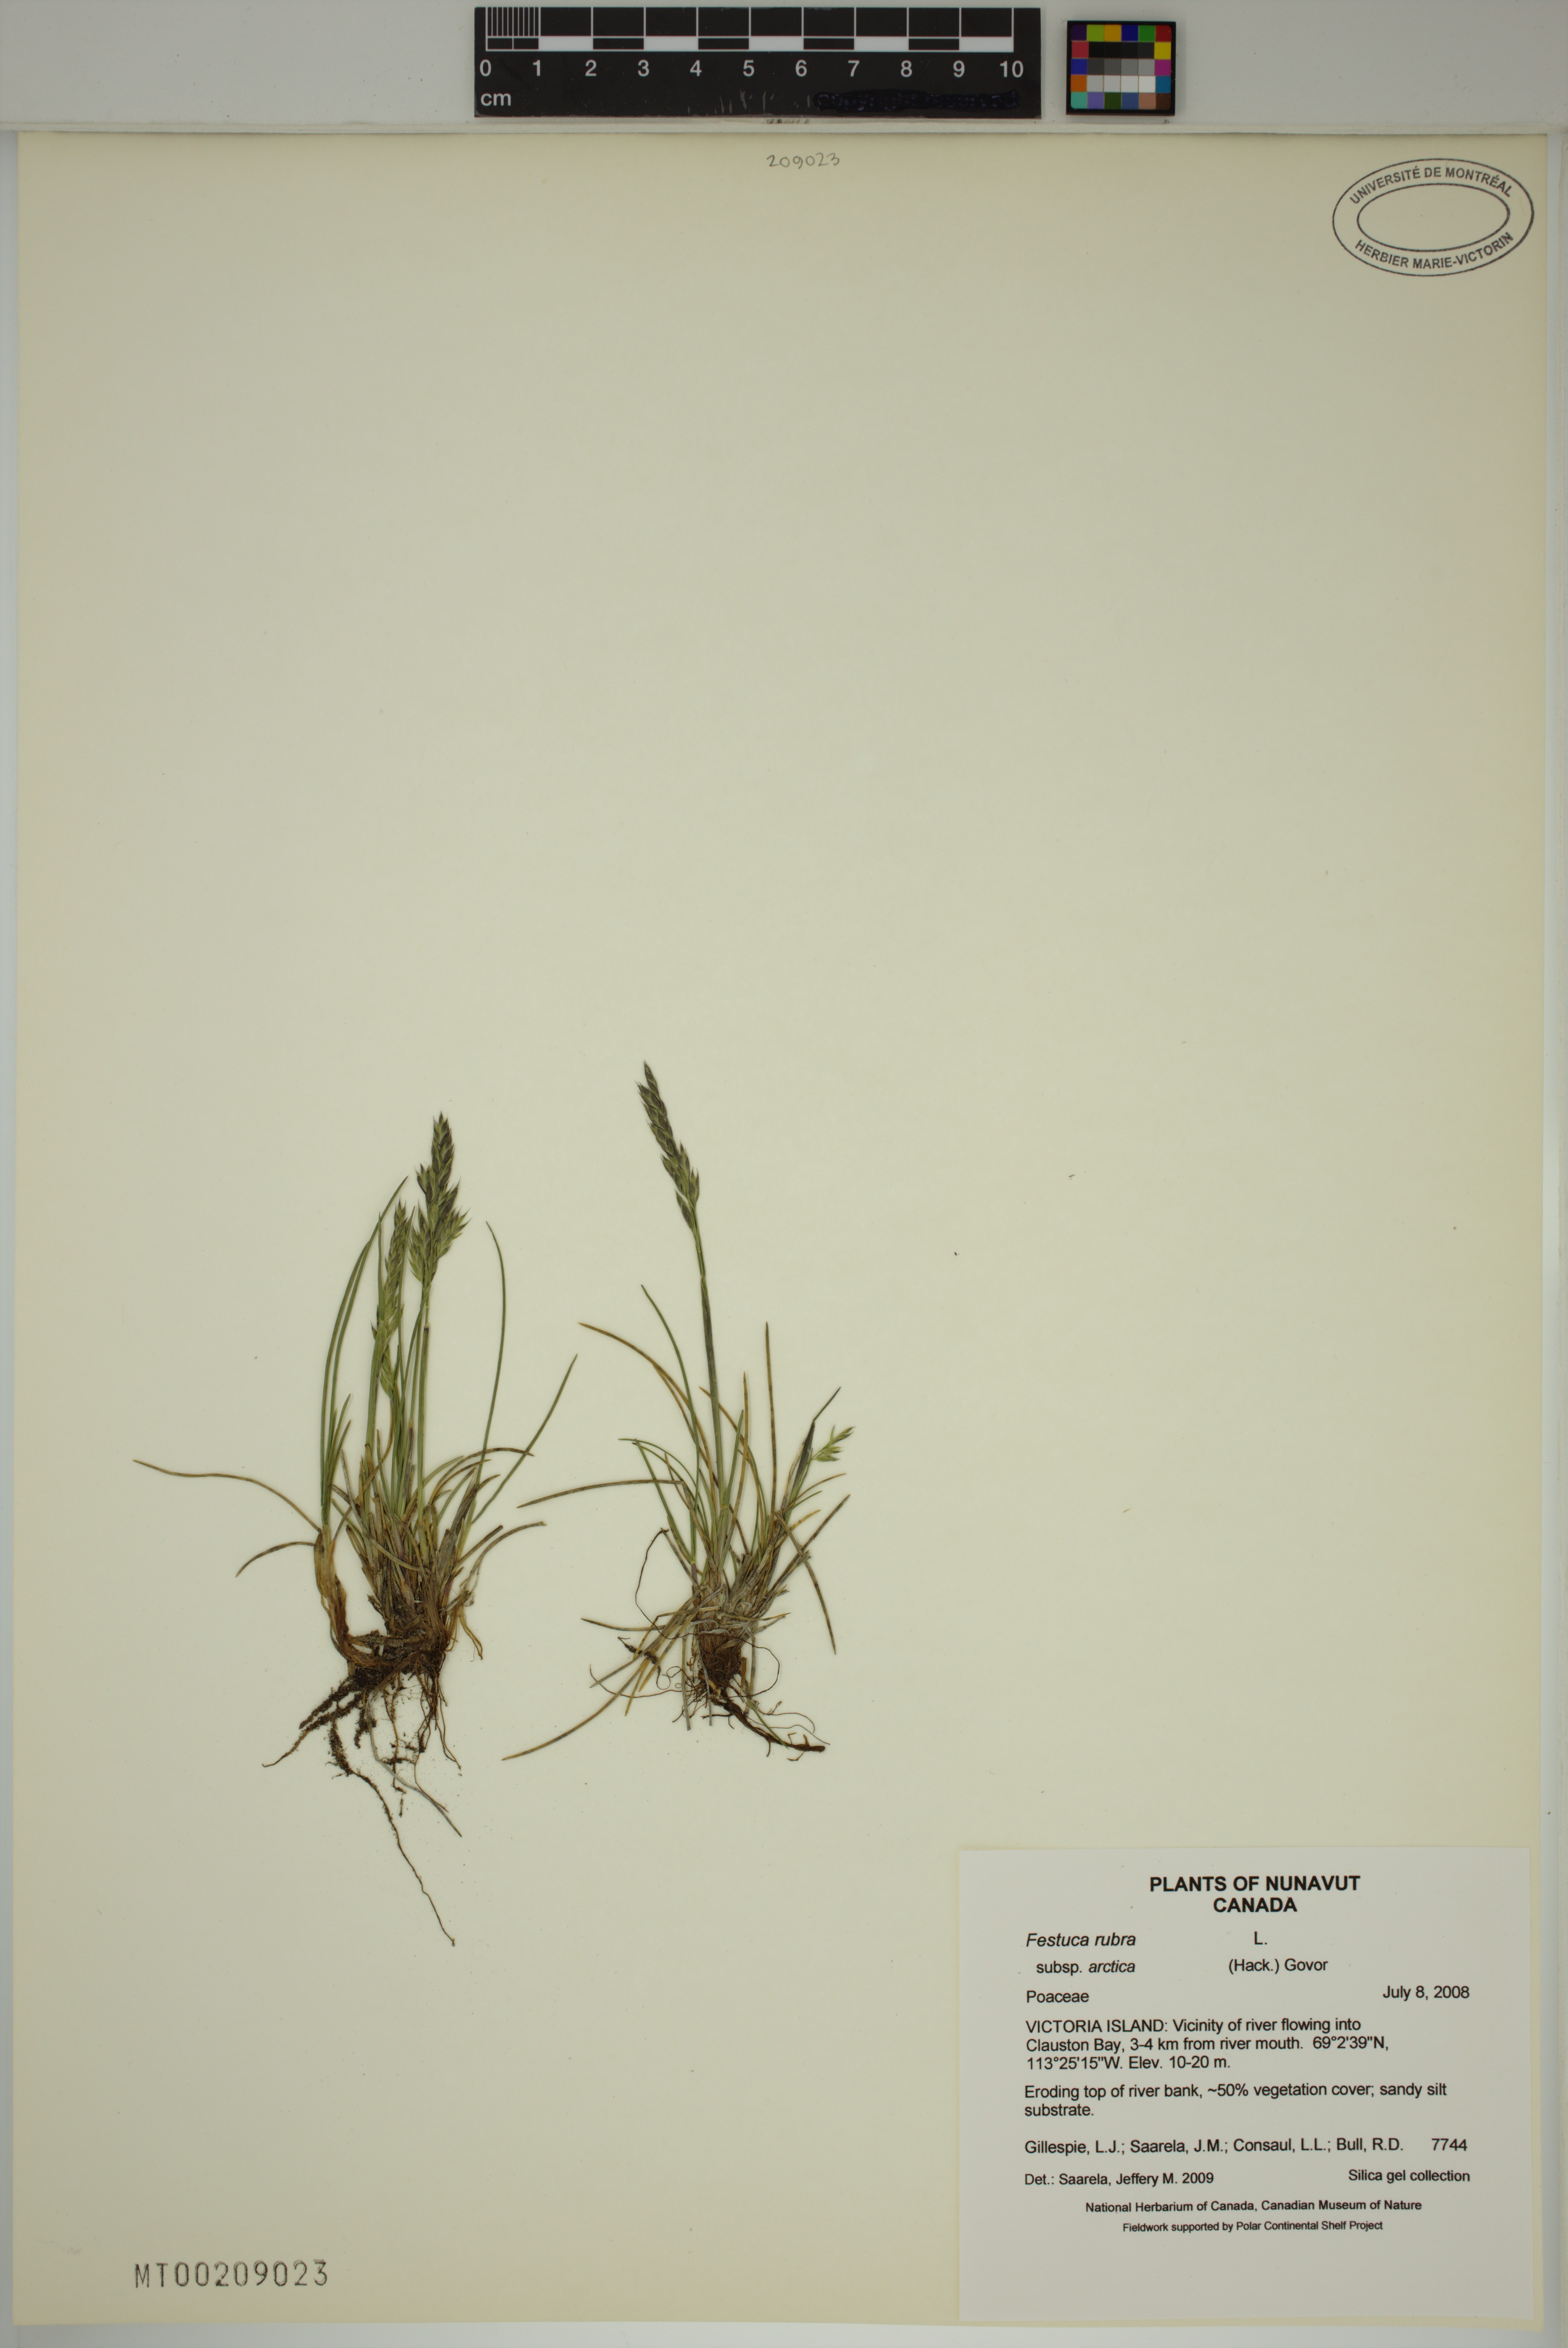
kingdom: Plantae
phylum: Tracheophyta
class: Liliopsida
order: Poales
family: Poaceae
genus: Festuca
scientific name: Festuca richardsonii
